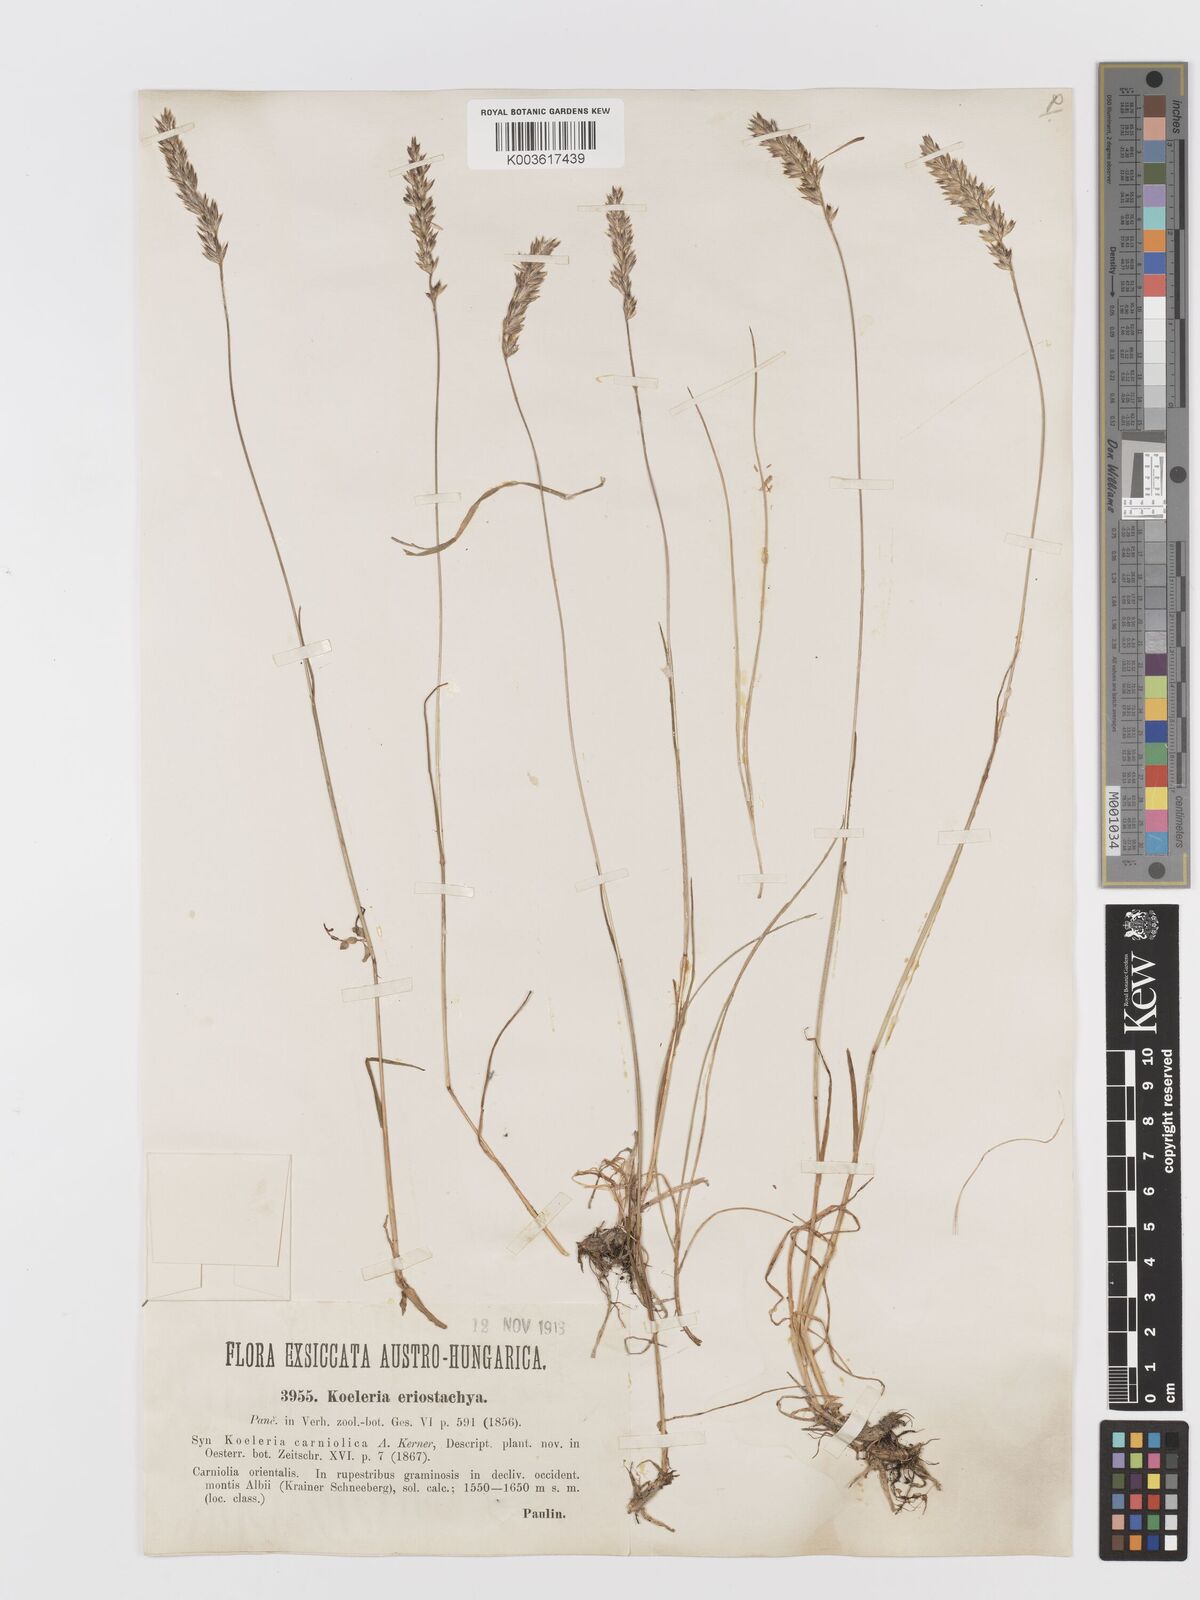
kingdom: Plantae
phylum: Tracheophyta
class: Liliopsida
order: Poales
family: Poaceae
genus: Koeleria
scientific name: Koeleria eriostachya
